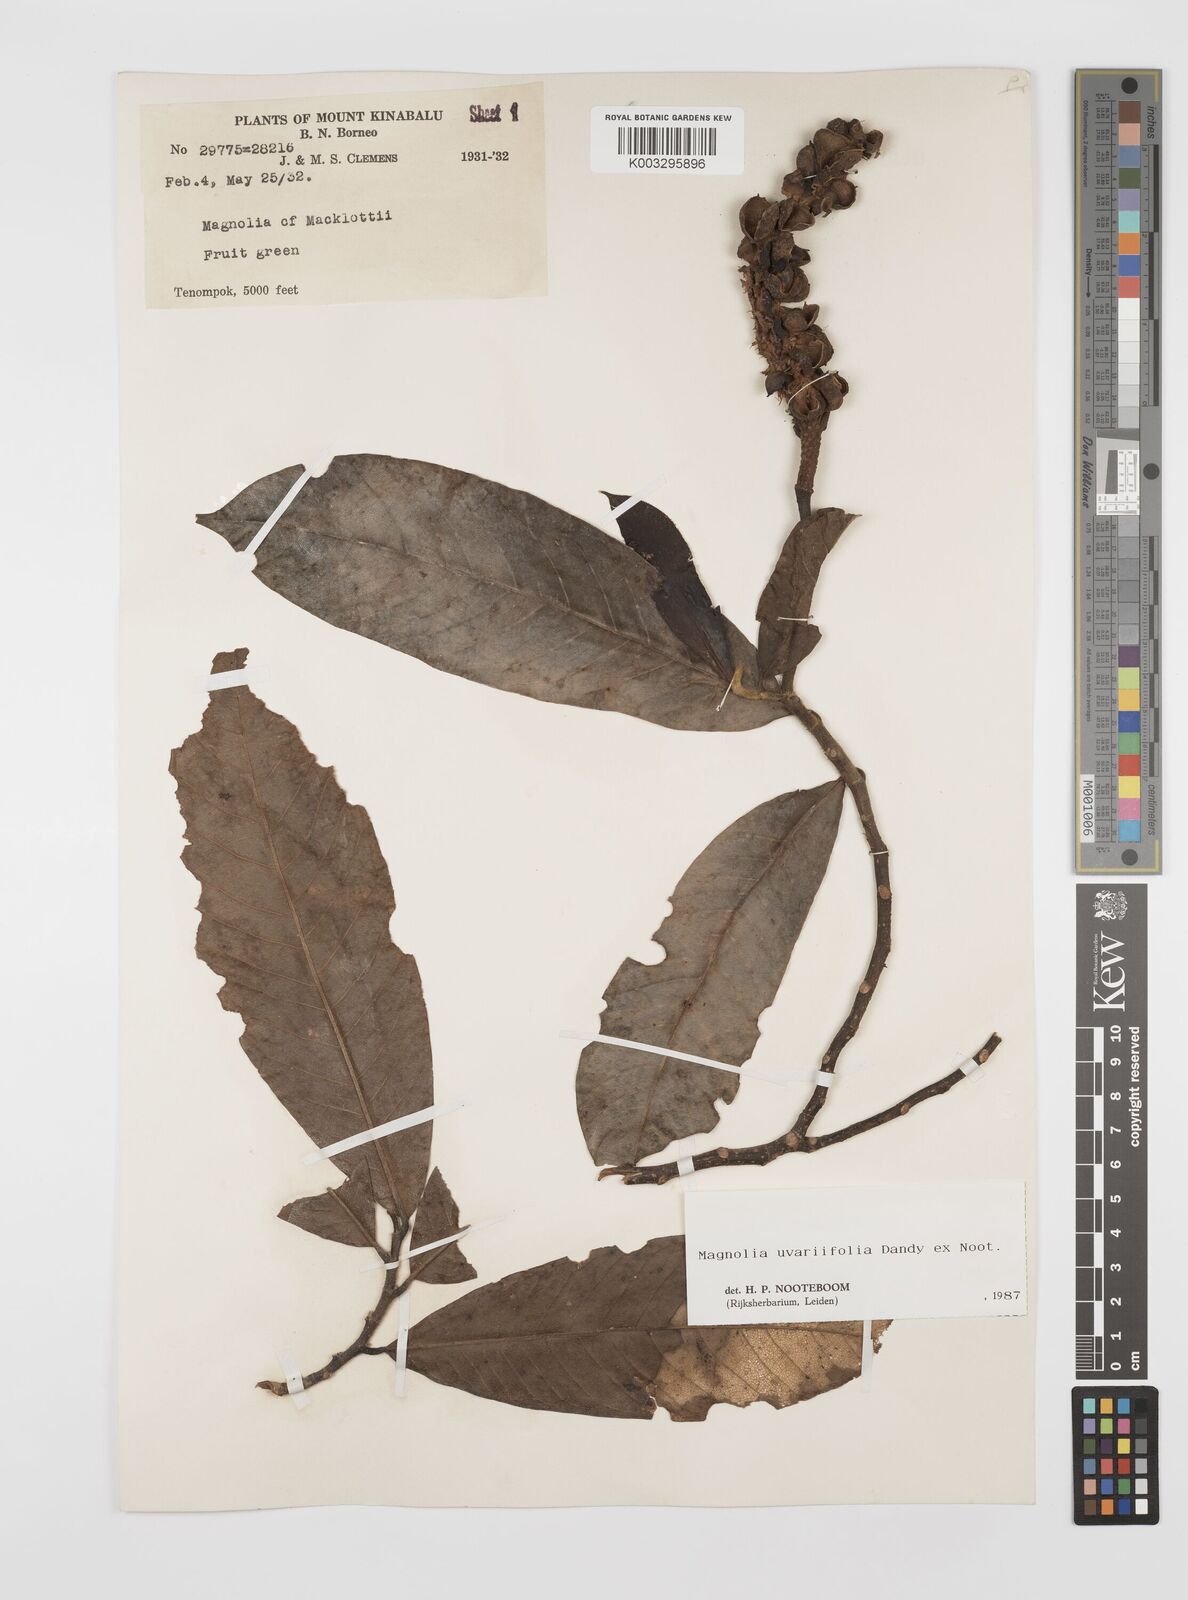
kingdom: Plantae
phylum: Tracheophyta
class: Magnoliopsida
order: Magnoliales
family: Magnoliaceae
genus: Magnolia
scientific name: Magnolia macklottii
